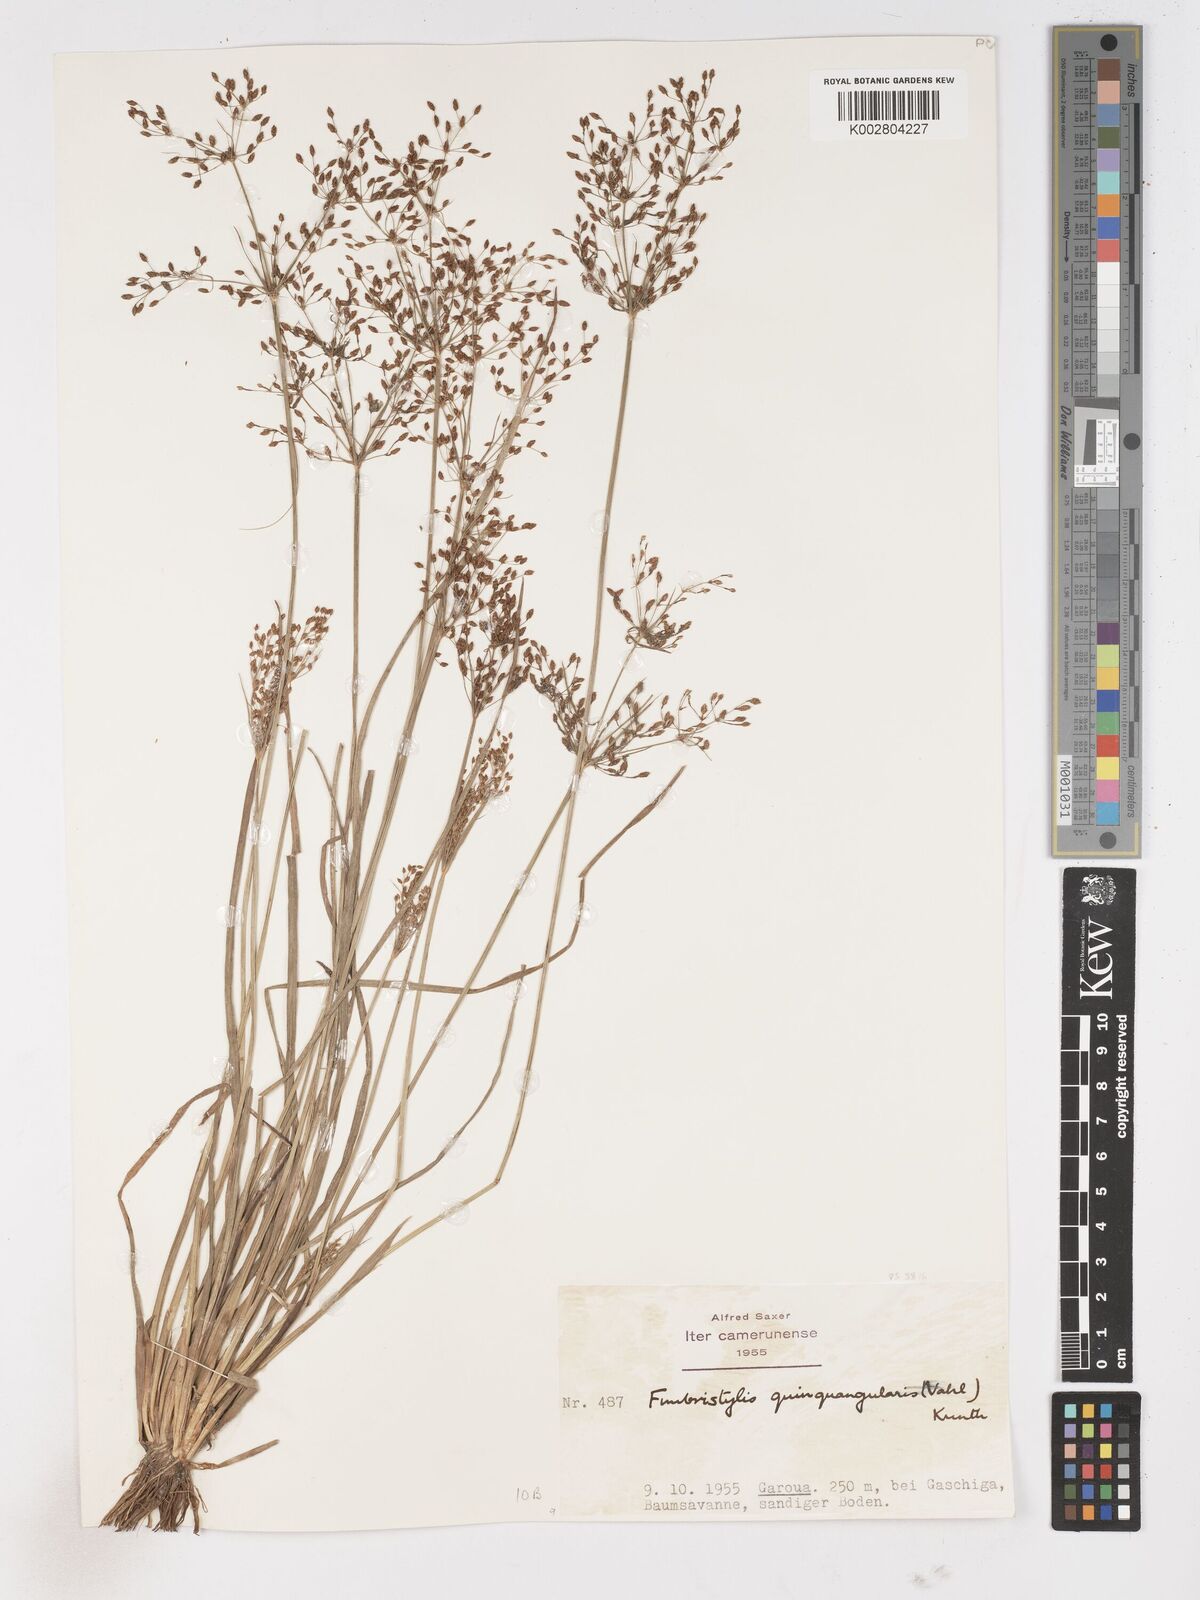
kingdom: Plantae
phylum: Tracheophyta
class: Liliopsida
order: Poales
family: Cyperaceae
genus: Fimbristylis
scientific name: Fimbristylis quinquangularis
